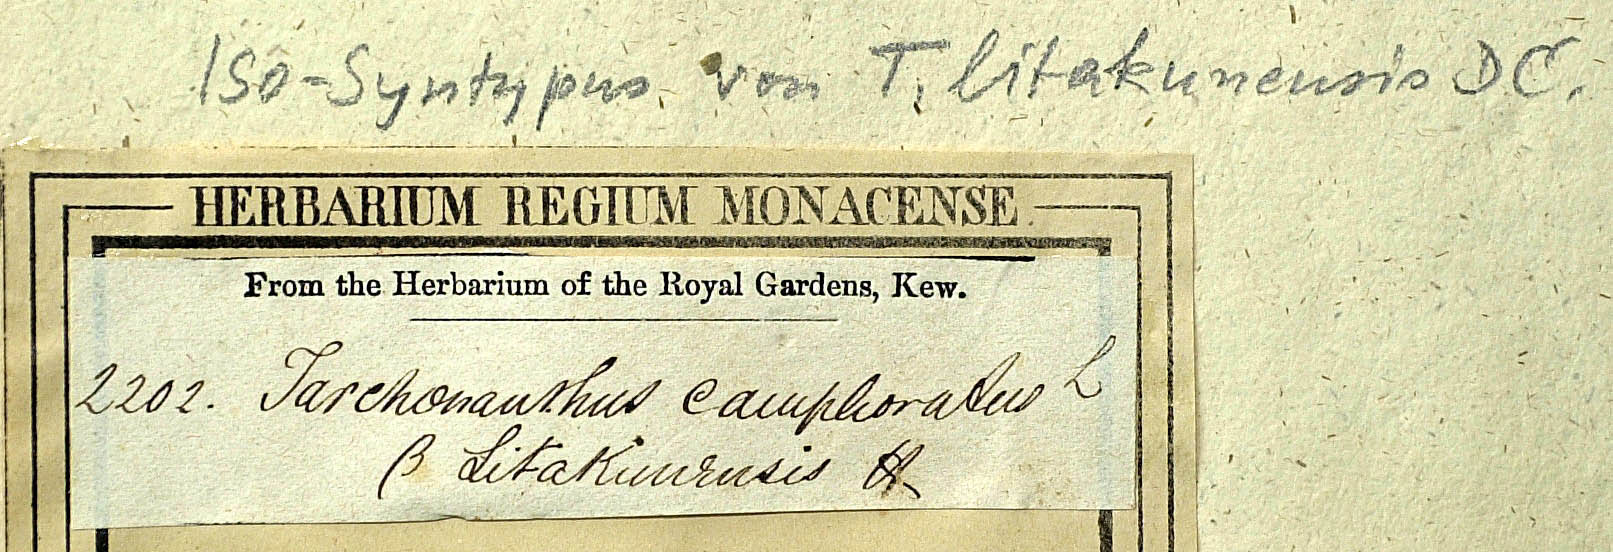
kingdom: Plantae
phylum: Tracheophyta
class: Magnoliopsida
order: Asterales
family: Asteraceae
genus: Tarchonanthus
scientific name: Tarchonanthus camphoratus
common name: Camphorwood
